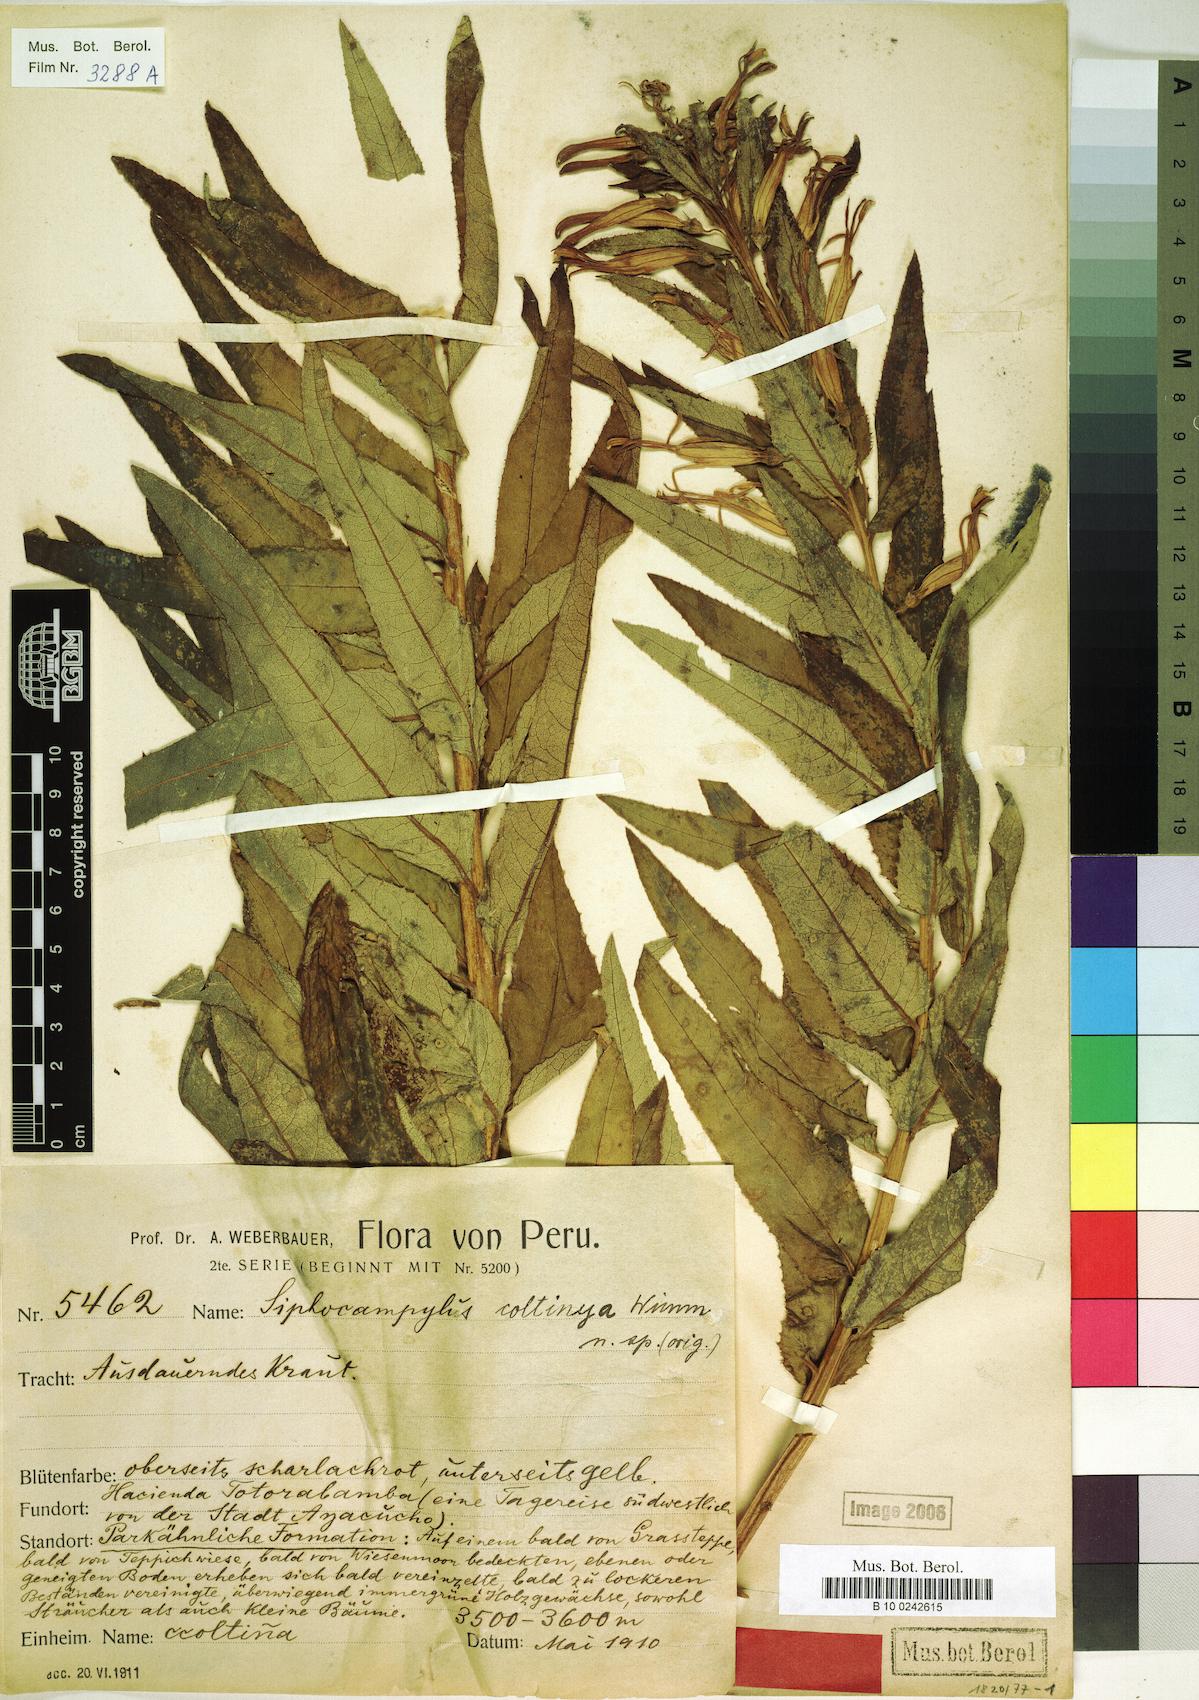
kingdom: Plantae
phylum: Tracheophyta
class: Magnoliopsida
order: Asterales
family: Campanulaceae
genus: Siphocampylus
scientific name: Siphocampylus coltinya
